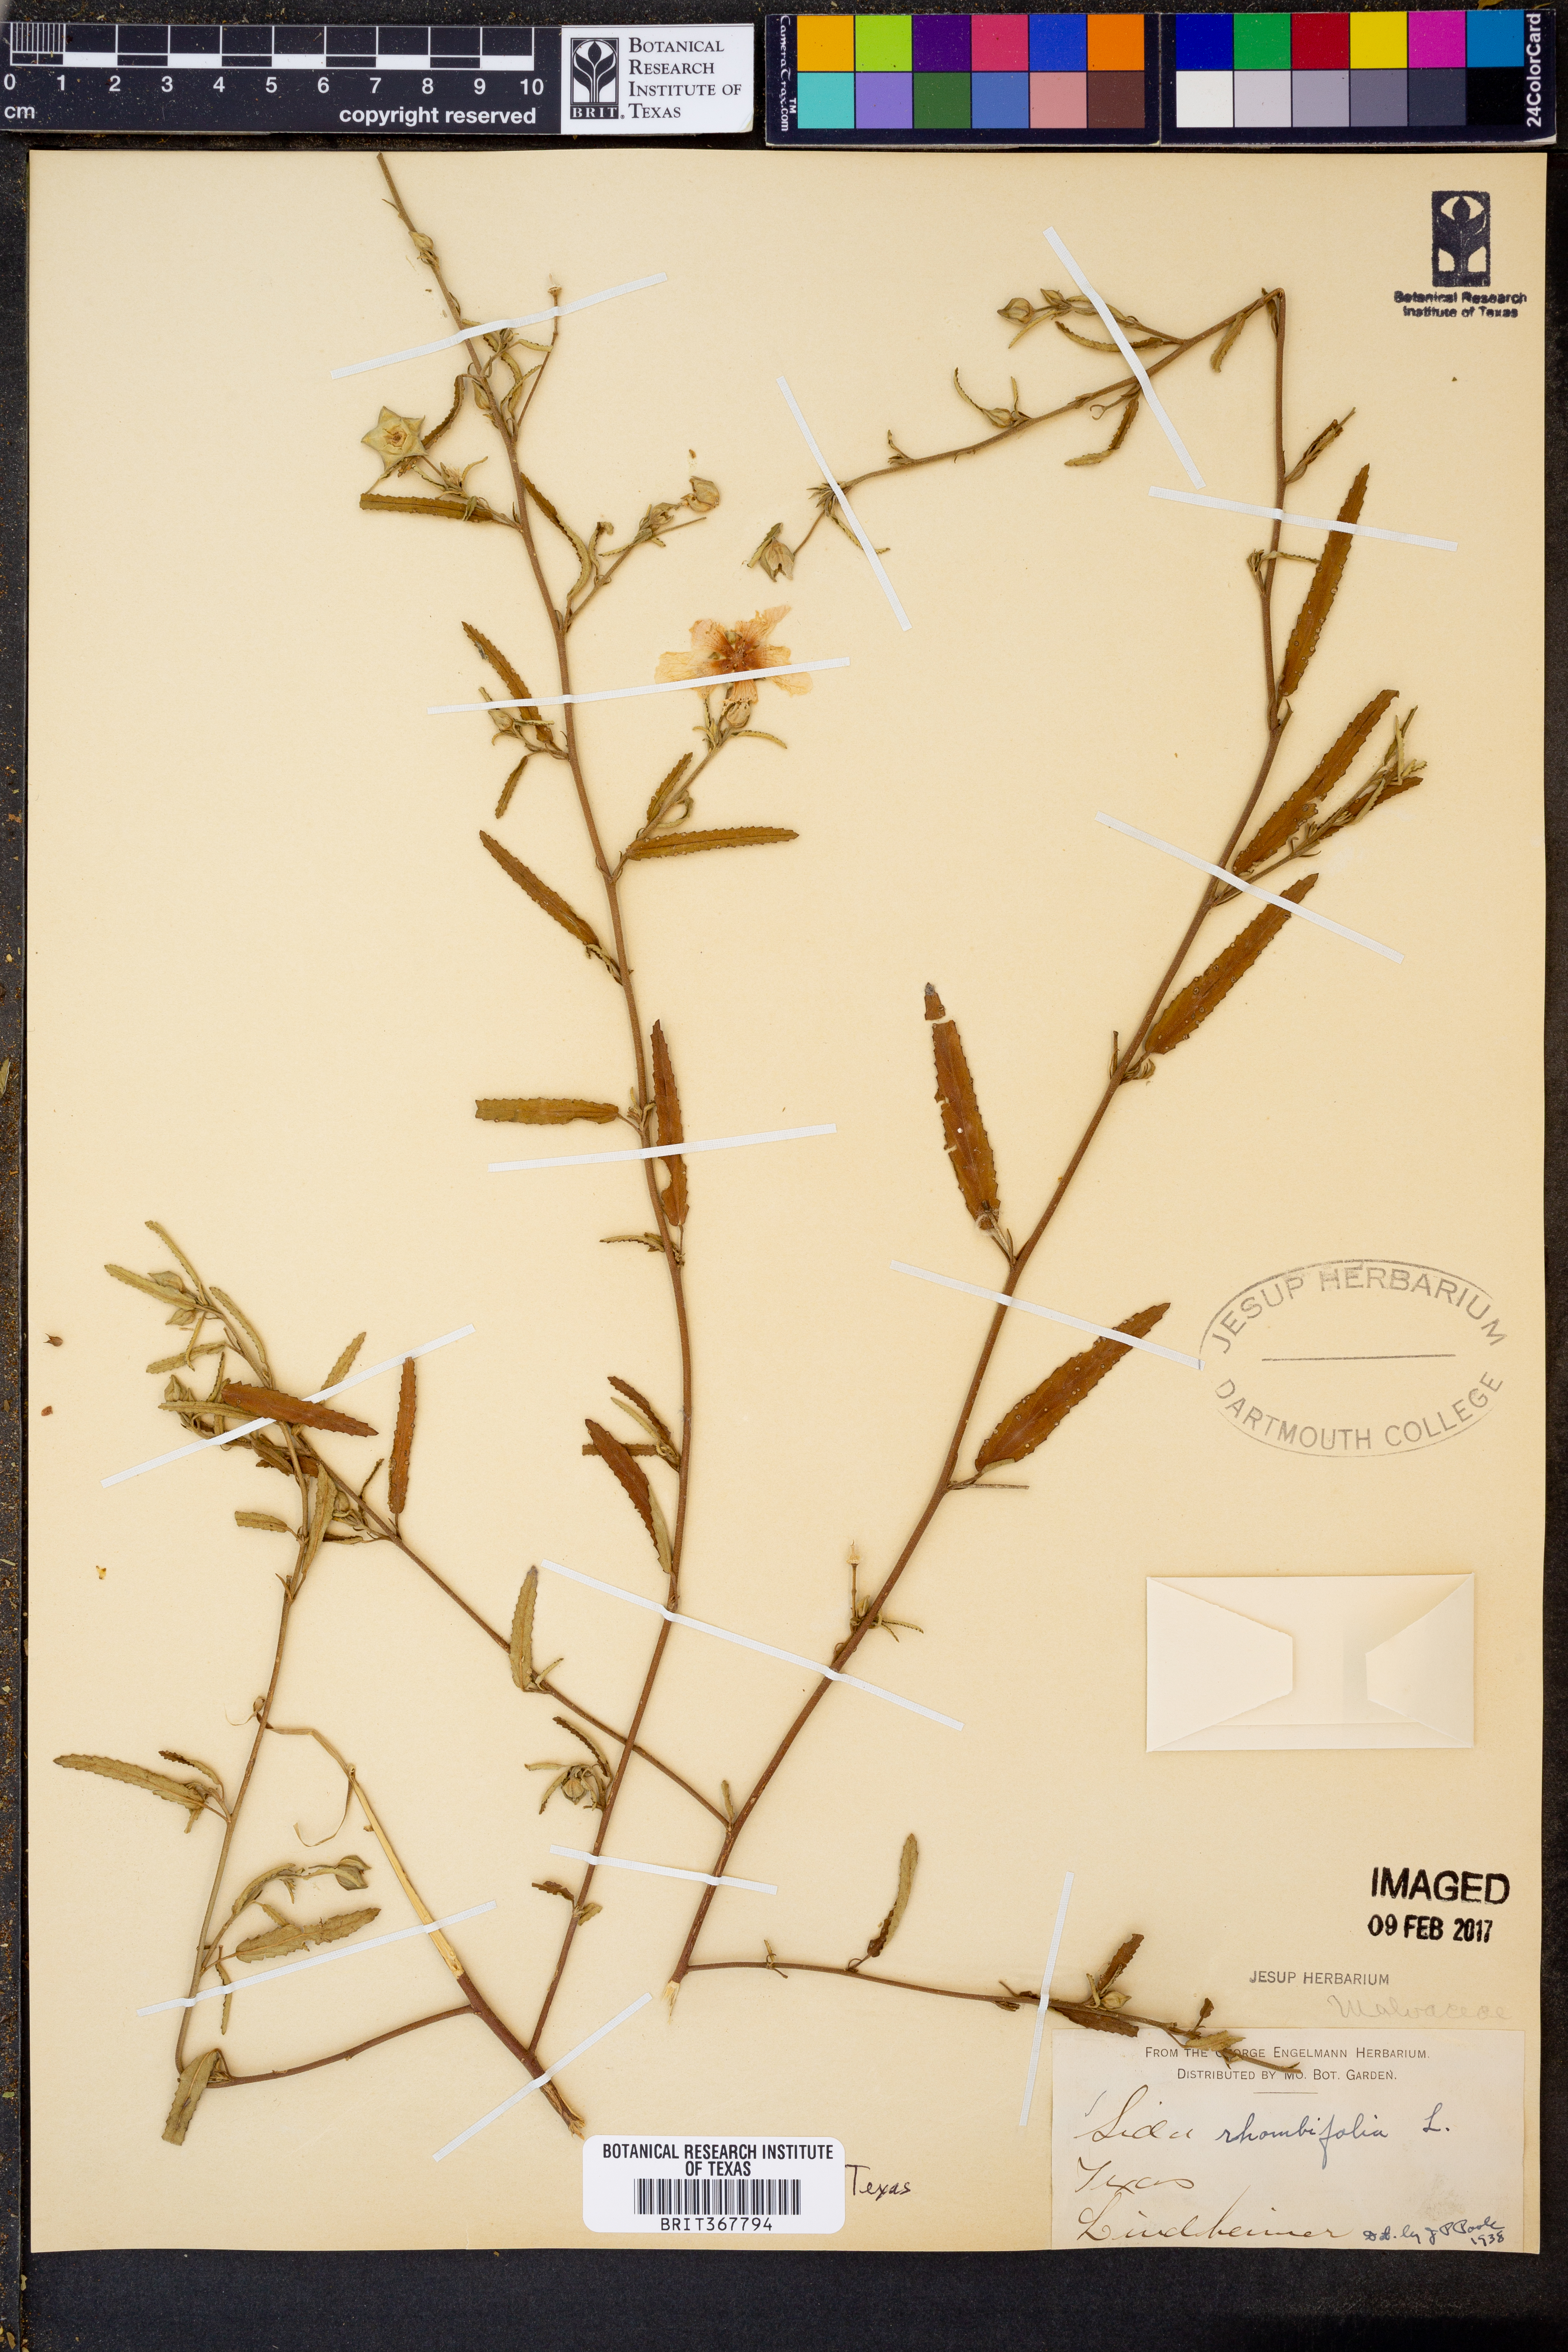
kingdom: Plantae
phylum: Tracheophyta
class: Magnoliopsida
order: Malvales
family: Malvaceae
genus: Sida
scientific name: Sida rhombifolia
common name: Queensland-hemp
